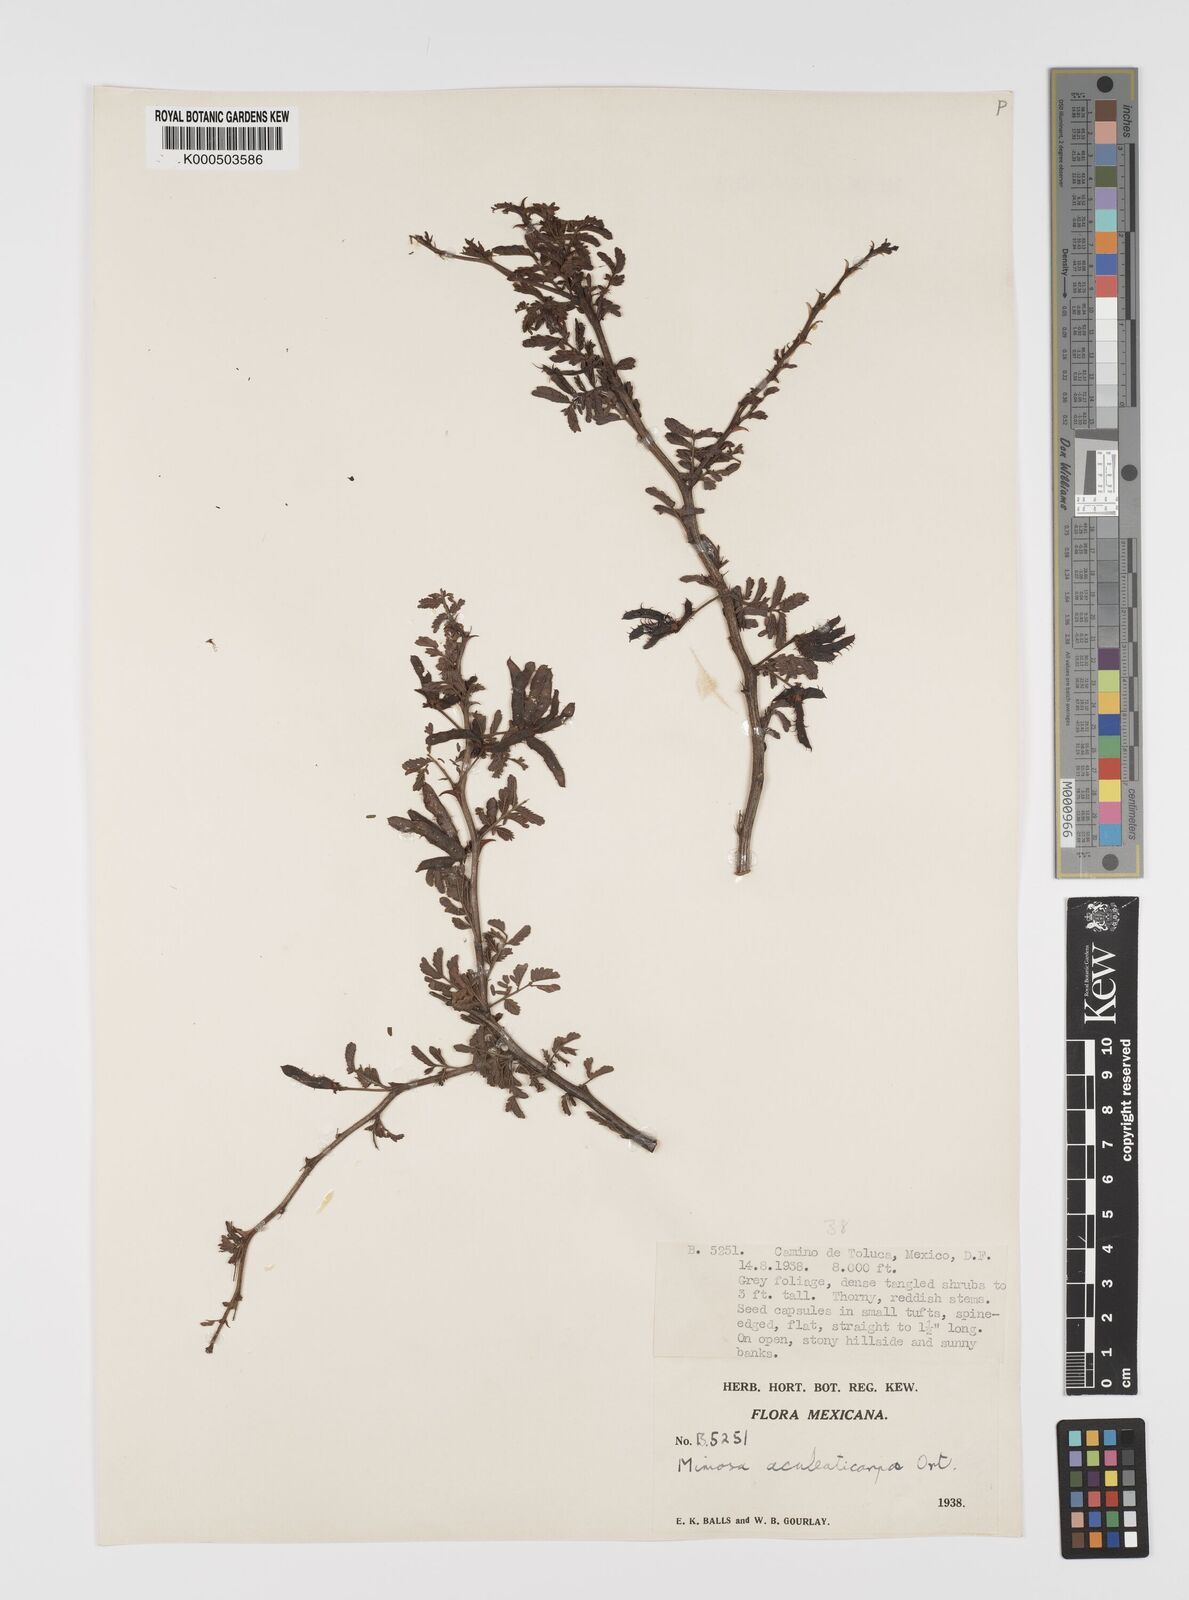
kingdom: Plantae
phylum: Tracheophyta
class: Magnoliopsida
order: Fabales
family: Fabaceae
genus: Mimosa
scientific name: Mimosa aculeaticarpa
